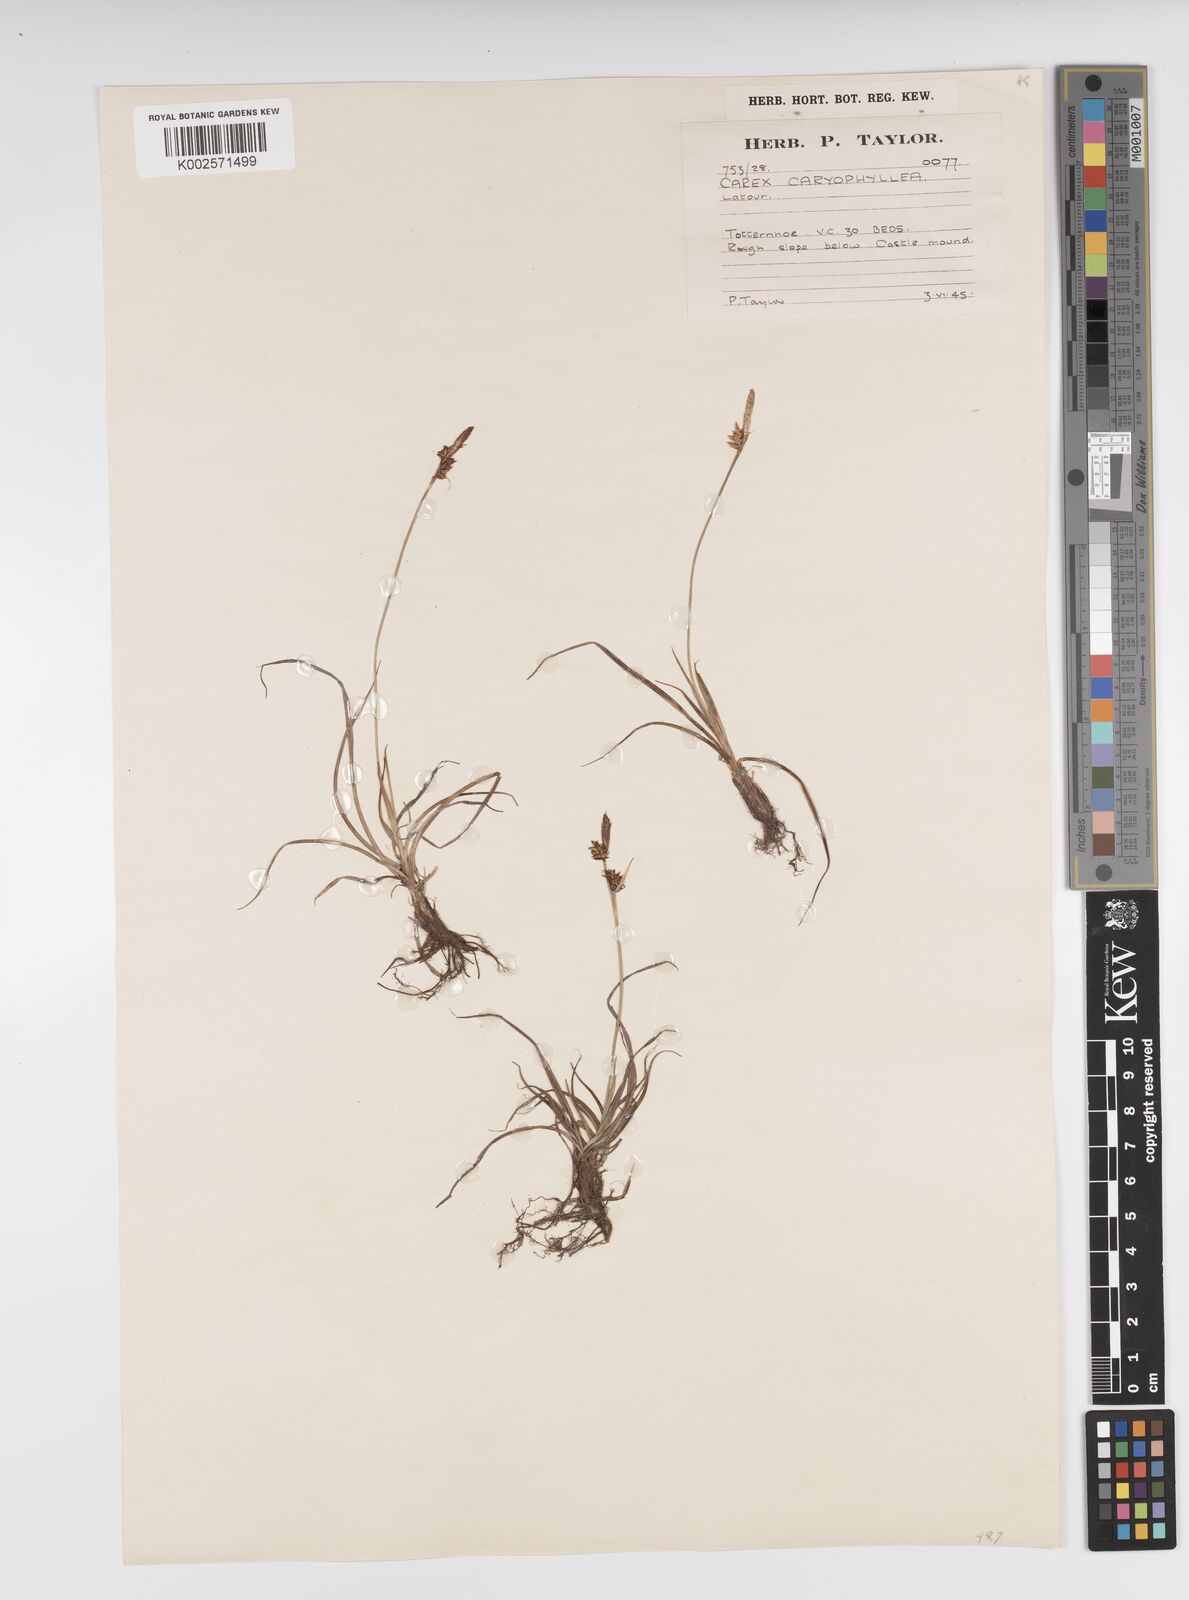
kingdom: Plantae
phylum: Tracheophyta
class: Liliopsida
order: Poales
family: Cyperaceae
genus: Carex
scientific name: Carex caryophyllea
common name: Spring sedge
